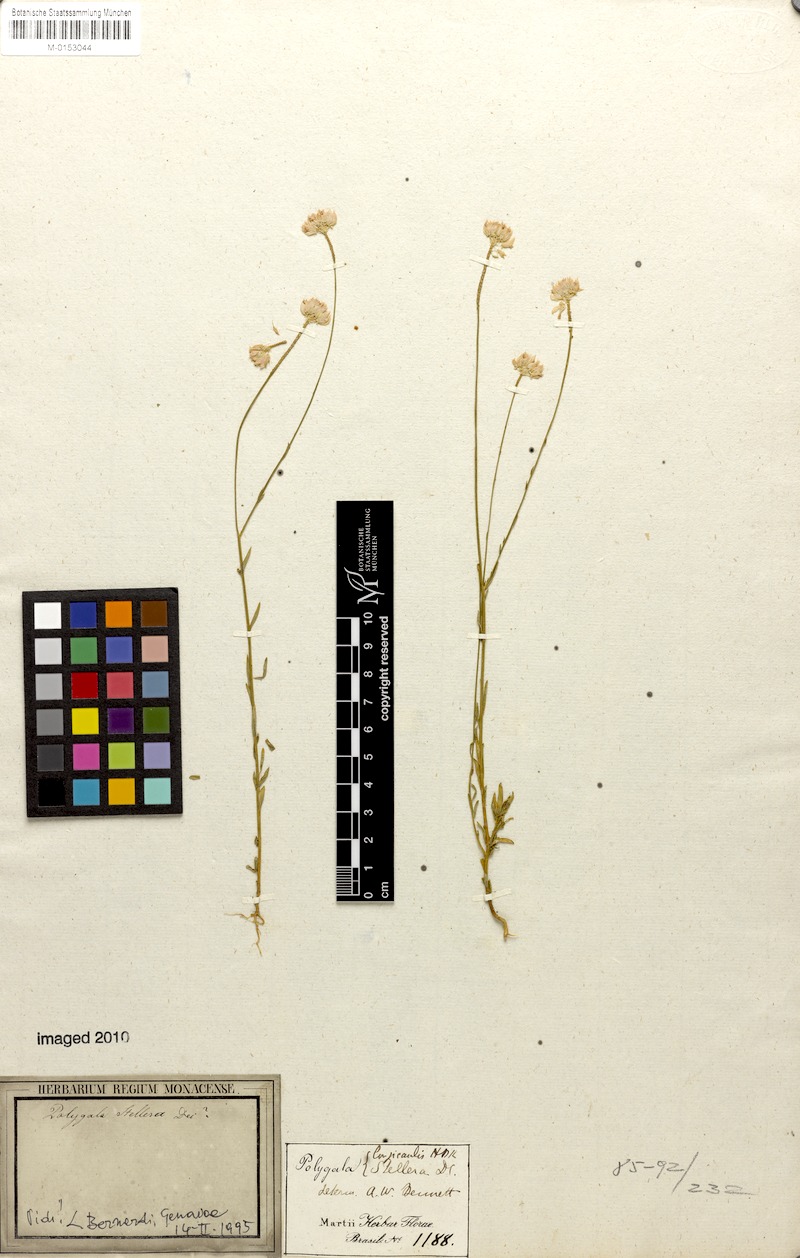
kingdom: Plantae
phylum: Tracheophyta
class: Magnoliopsida
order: Fabales
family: Polygalaceae
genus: Polygala
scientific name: Polygala longicaulis
